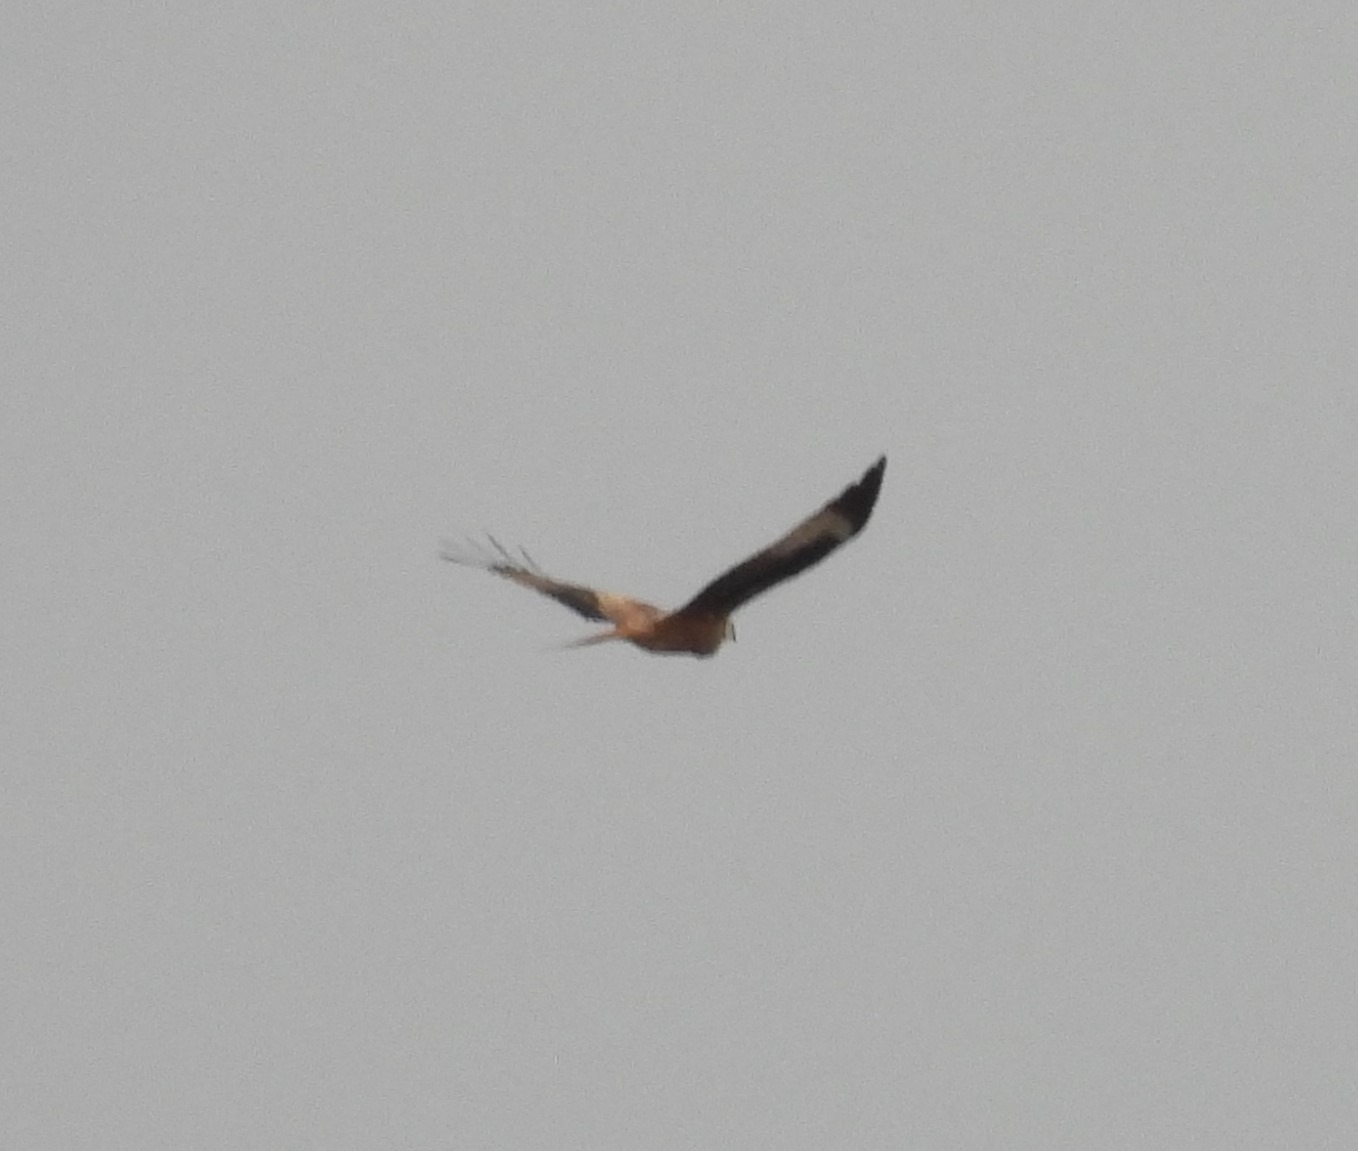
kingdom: Animalia
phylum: Chordata
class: Aves
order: Accipitriformes
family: Accipitridae
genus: Milvus
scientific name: Milvus milvus
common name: Rød glente
